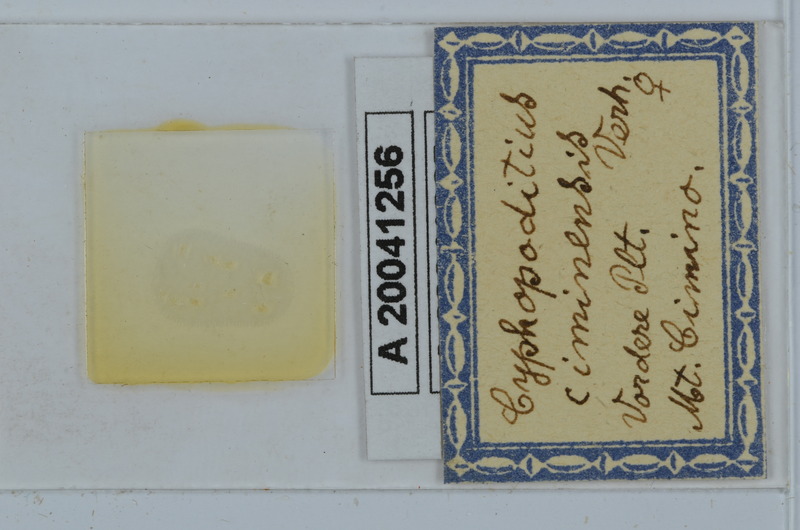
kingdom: Animalia
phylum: Arthropoda
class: Diplopoda
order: Julida
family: Rhopaloiulidae
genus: Rhopaloiulus
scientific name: Rhopaloiulus cameratanus
